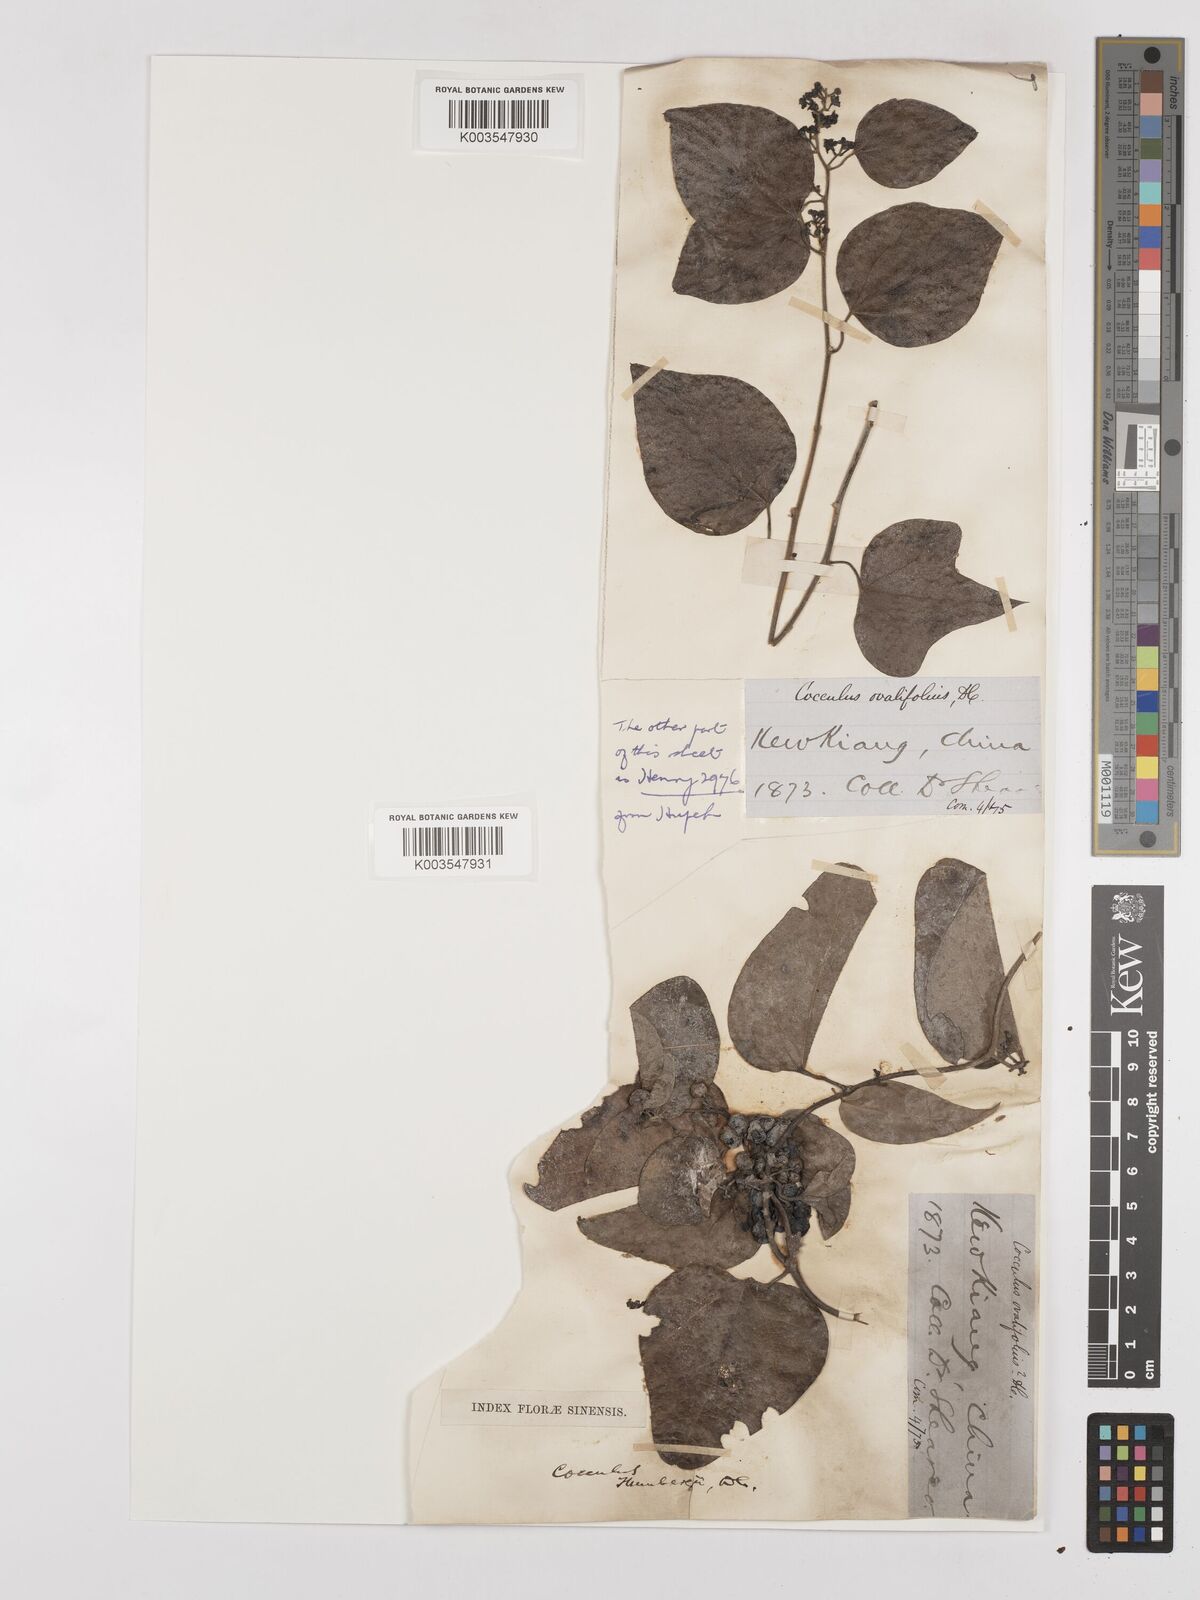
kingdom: Plantae
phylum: Tracheophyta
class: Magnoliopsida
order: Ranunculales
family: Menispermaceae
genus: Cocculus
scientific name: Cocculus orbiculatus
